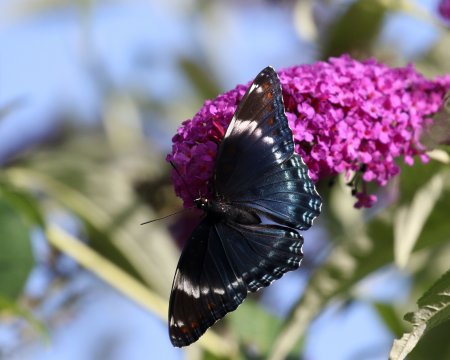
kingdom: Animalia
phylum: Arthropoda
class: Insecta
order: Lepidoptera
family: Nymphalidae
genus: Limenitis
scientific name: Limenitis arthemis
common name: Red-spotted Admiral
